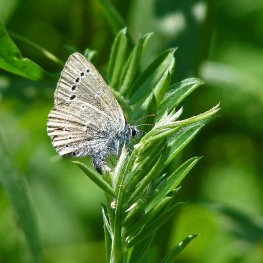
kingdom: Animalia
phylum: Arthropoda
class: Insecta
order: Lepidoptera
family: Lycaenidae
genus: Glaucopsyche
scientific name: Glaucopsyche lygdamus
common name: Silvery Blue
